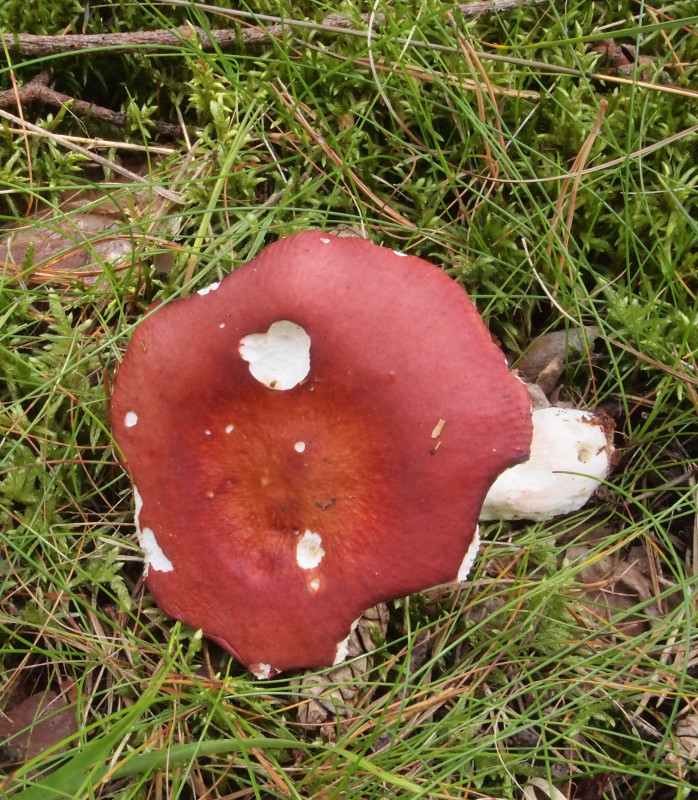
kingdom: Fungi
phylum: Basidiomycota
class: Agaricomycetes
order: Russulales
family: Russulaceae
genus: Russula
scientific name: Russula paludosa
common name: prægtig skørhat
